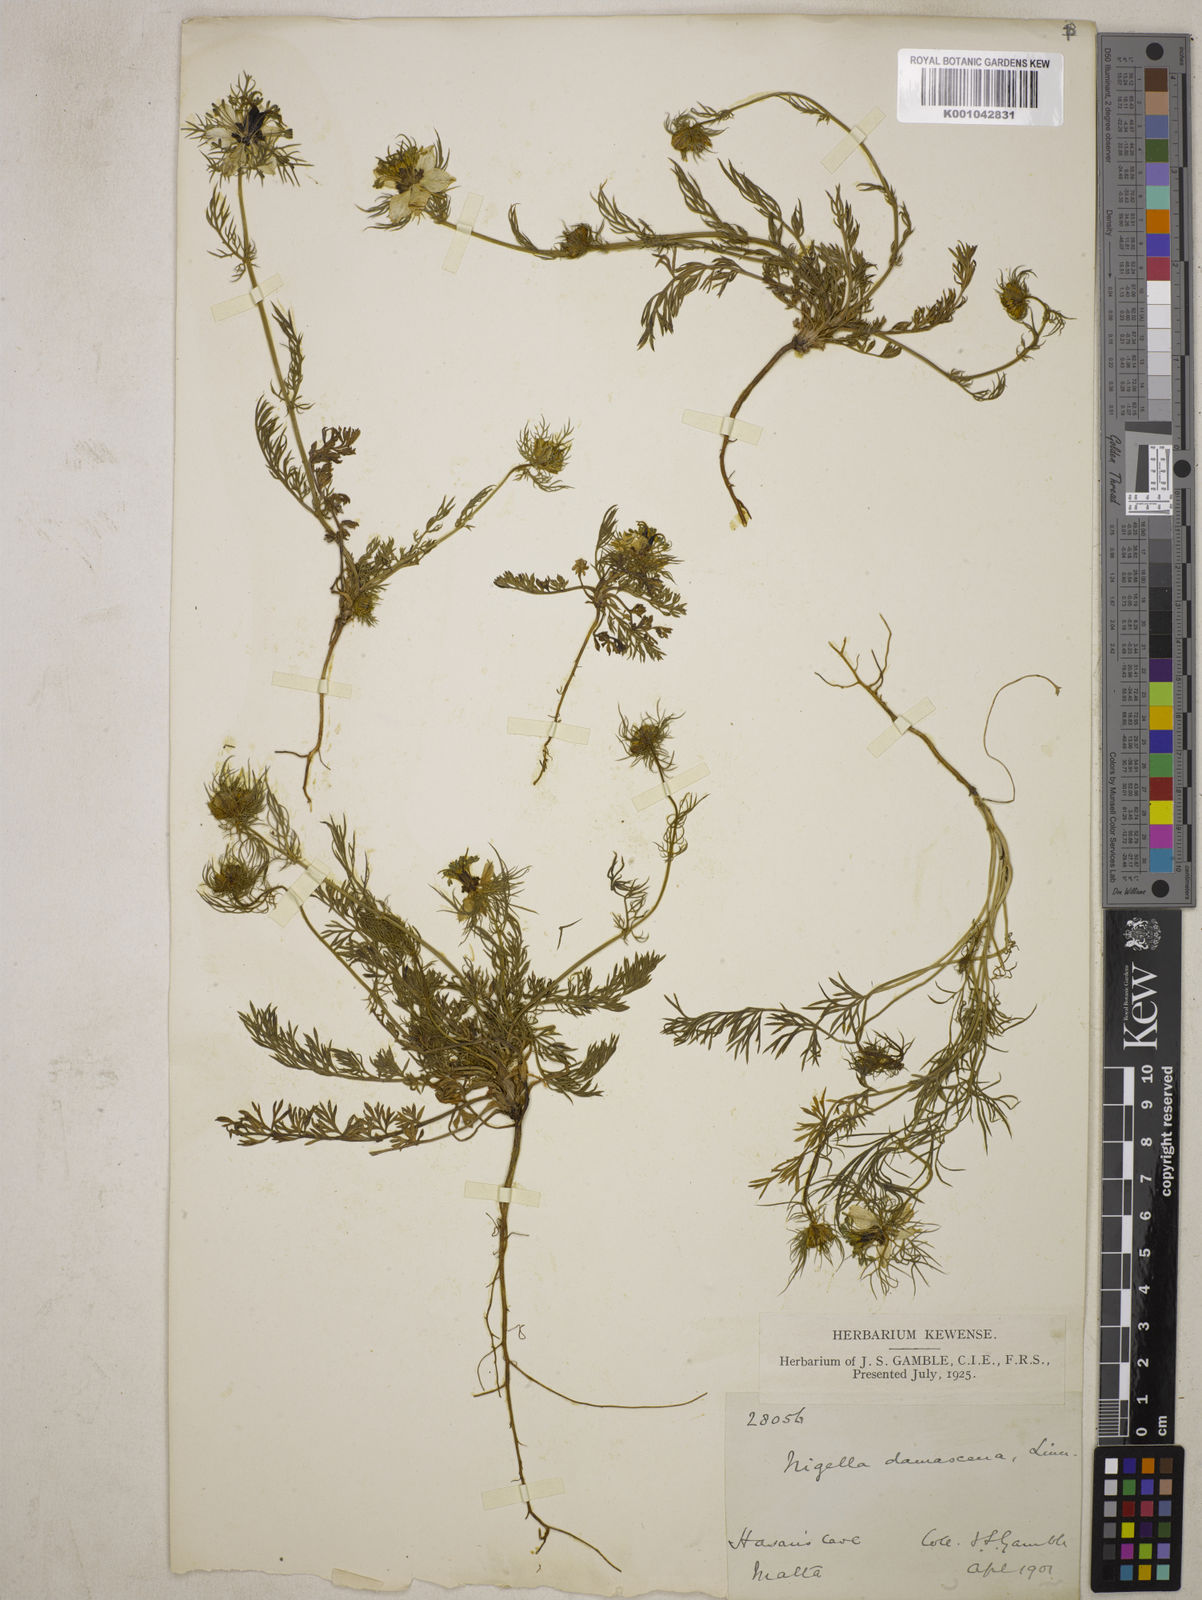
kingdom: Plantae
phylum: Tracheophyta
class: Magnoliopsida
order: Ranunculales
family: Ranunculaceae
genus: Nigella
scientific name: Nigella damascena
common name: Love-in-a-mist
